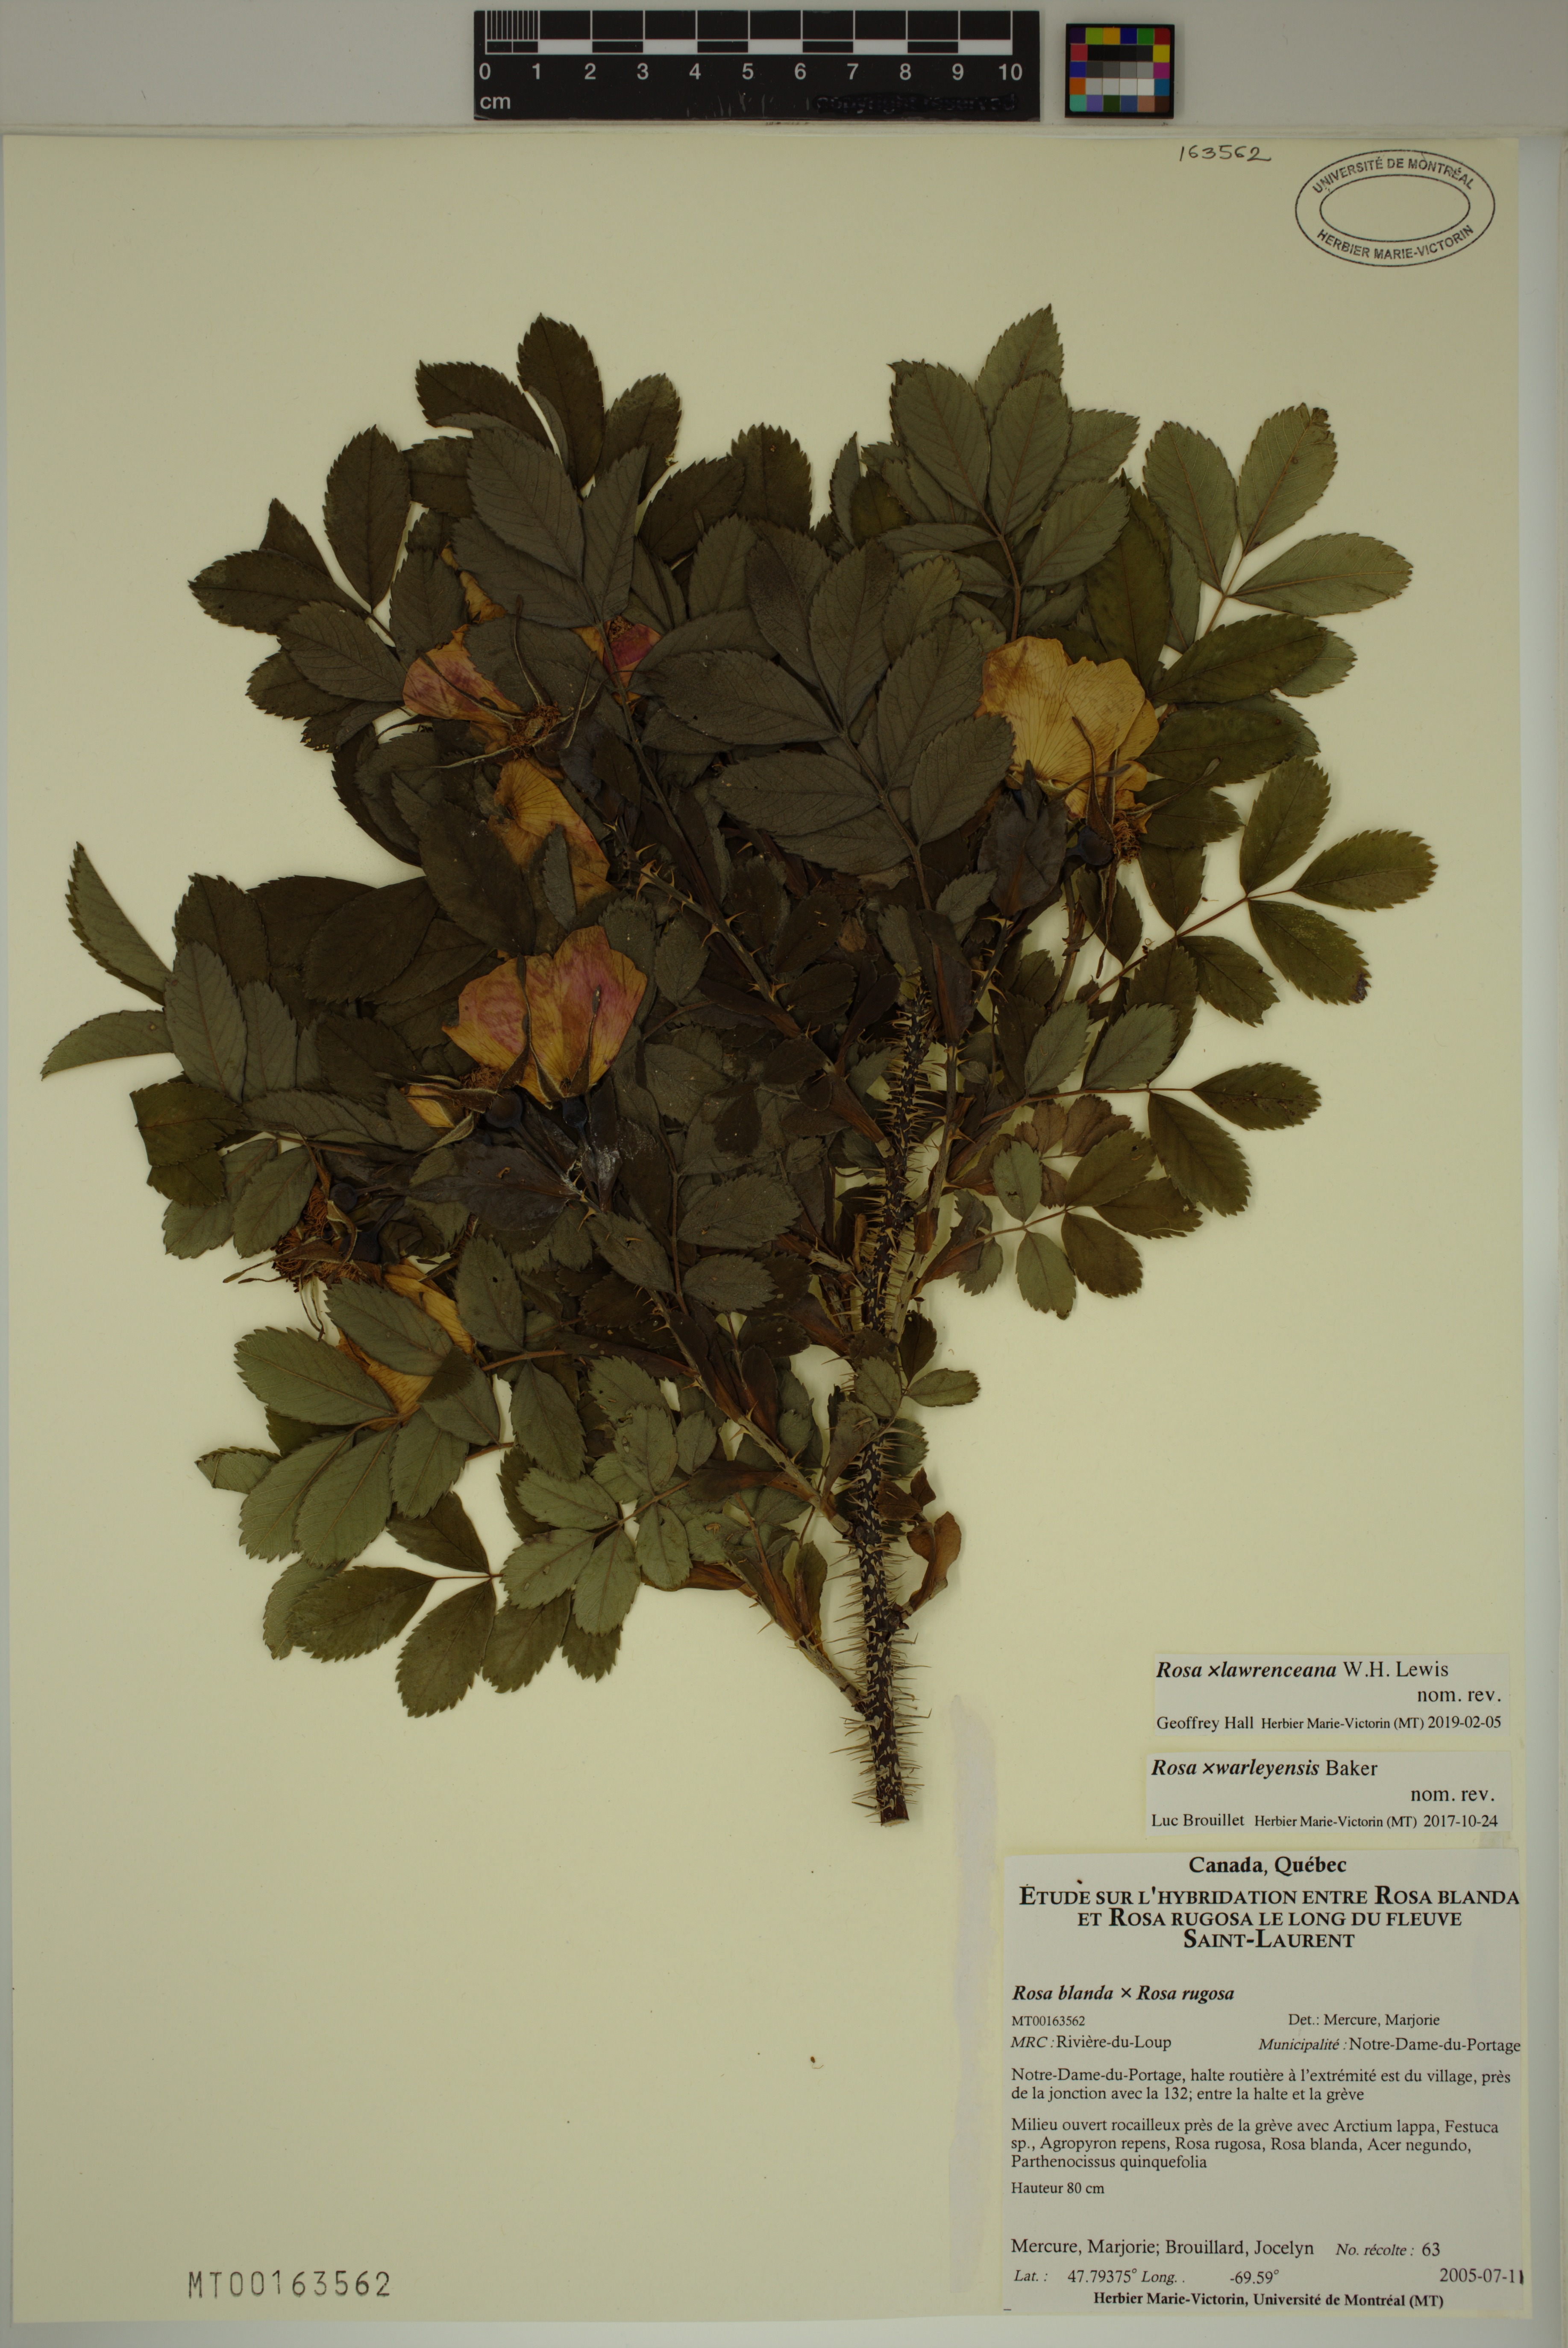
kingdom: Plantae
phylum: Tracheophyta
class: Magnoliopsida
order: Rosales
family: Rosaceae
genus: Rosa
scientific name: Rosa chinensis
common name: China rose
